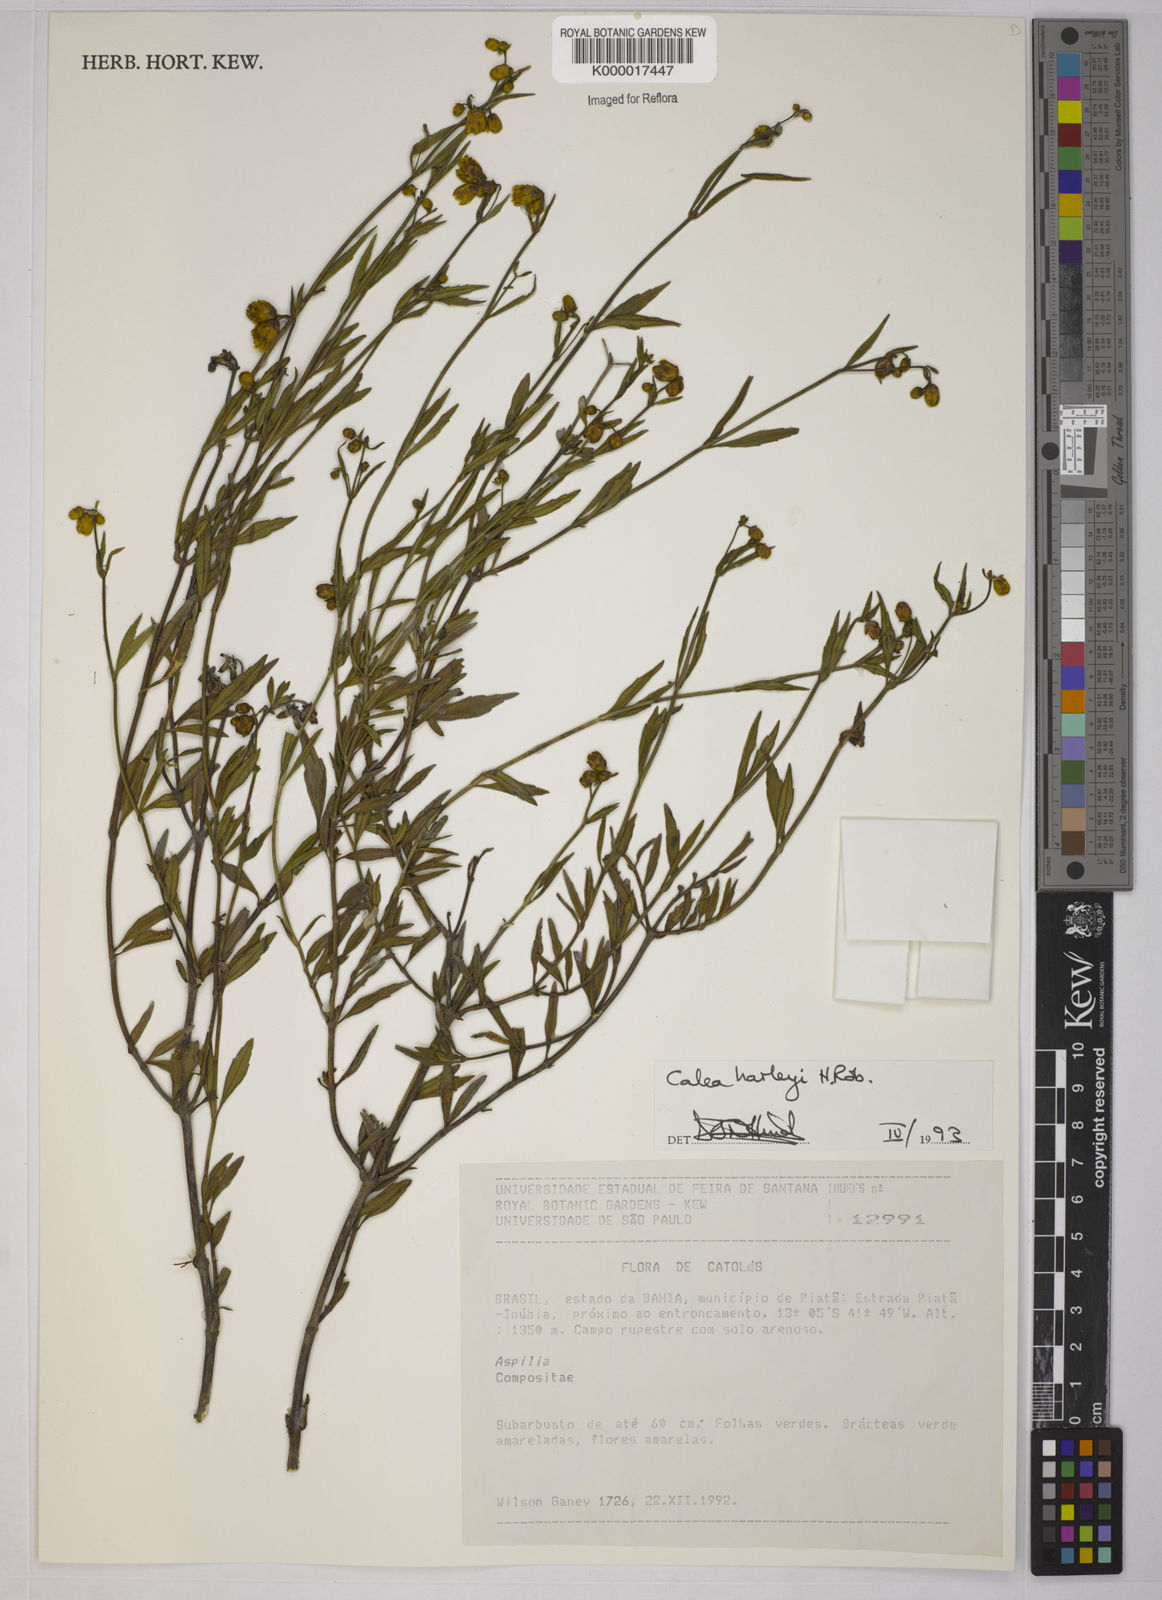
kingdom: Plantae
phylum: Tracheophyta
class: Magnoliopsida
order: Asterales
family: Asteraceae
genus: Calea
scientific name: Calea harleyi
